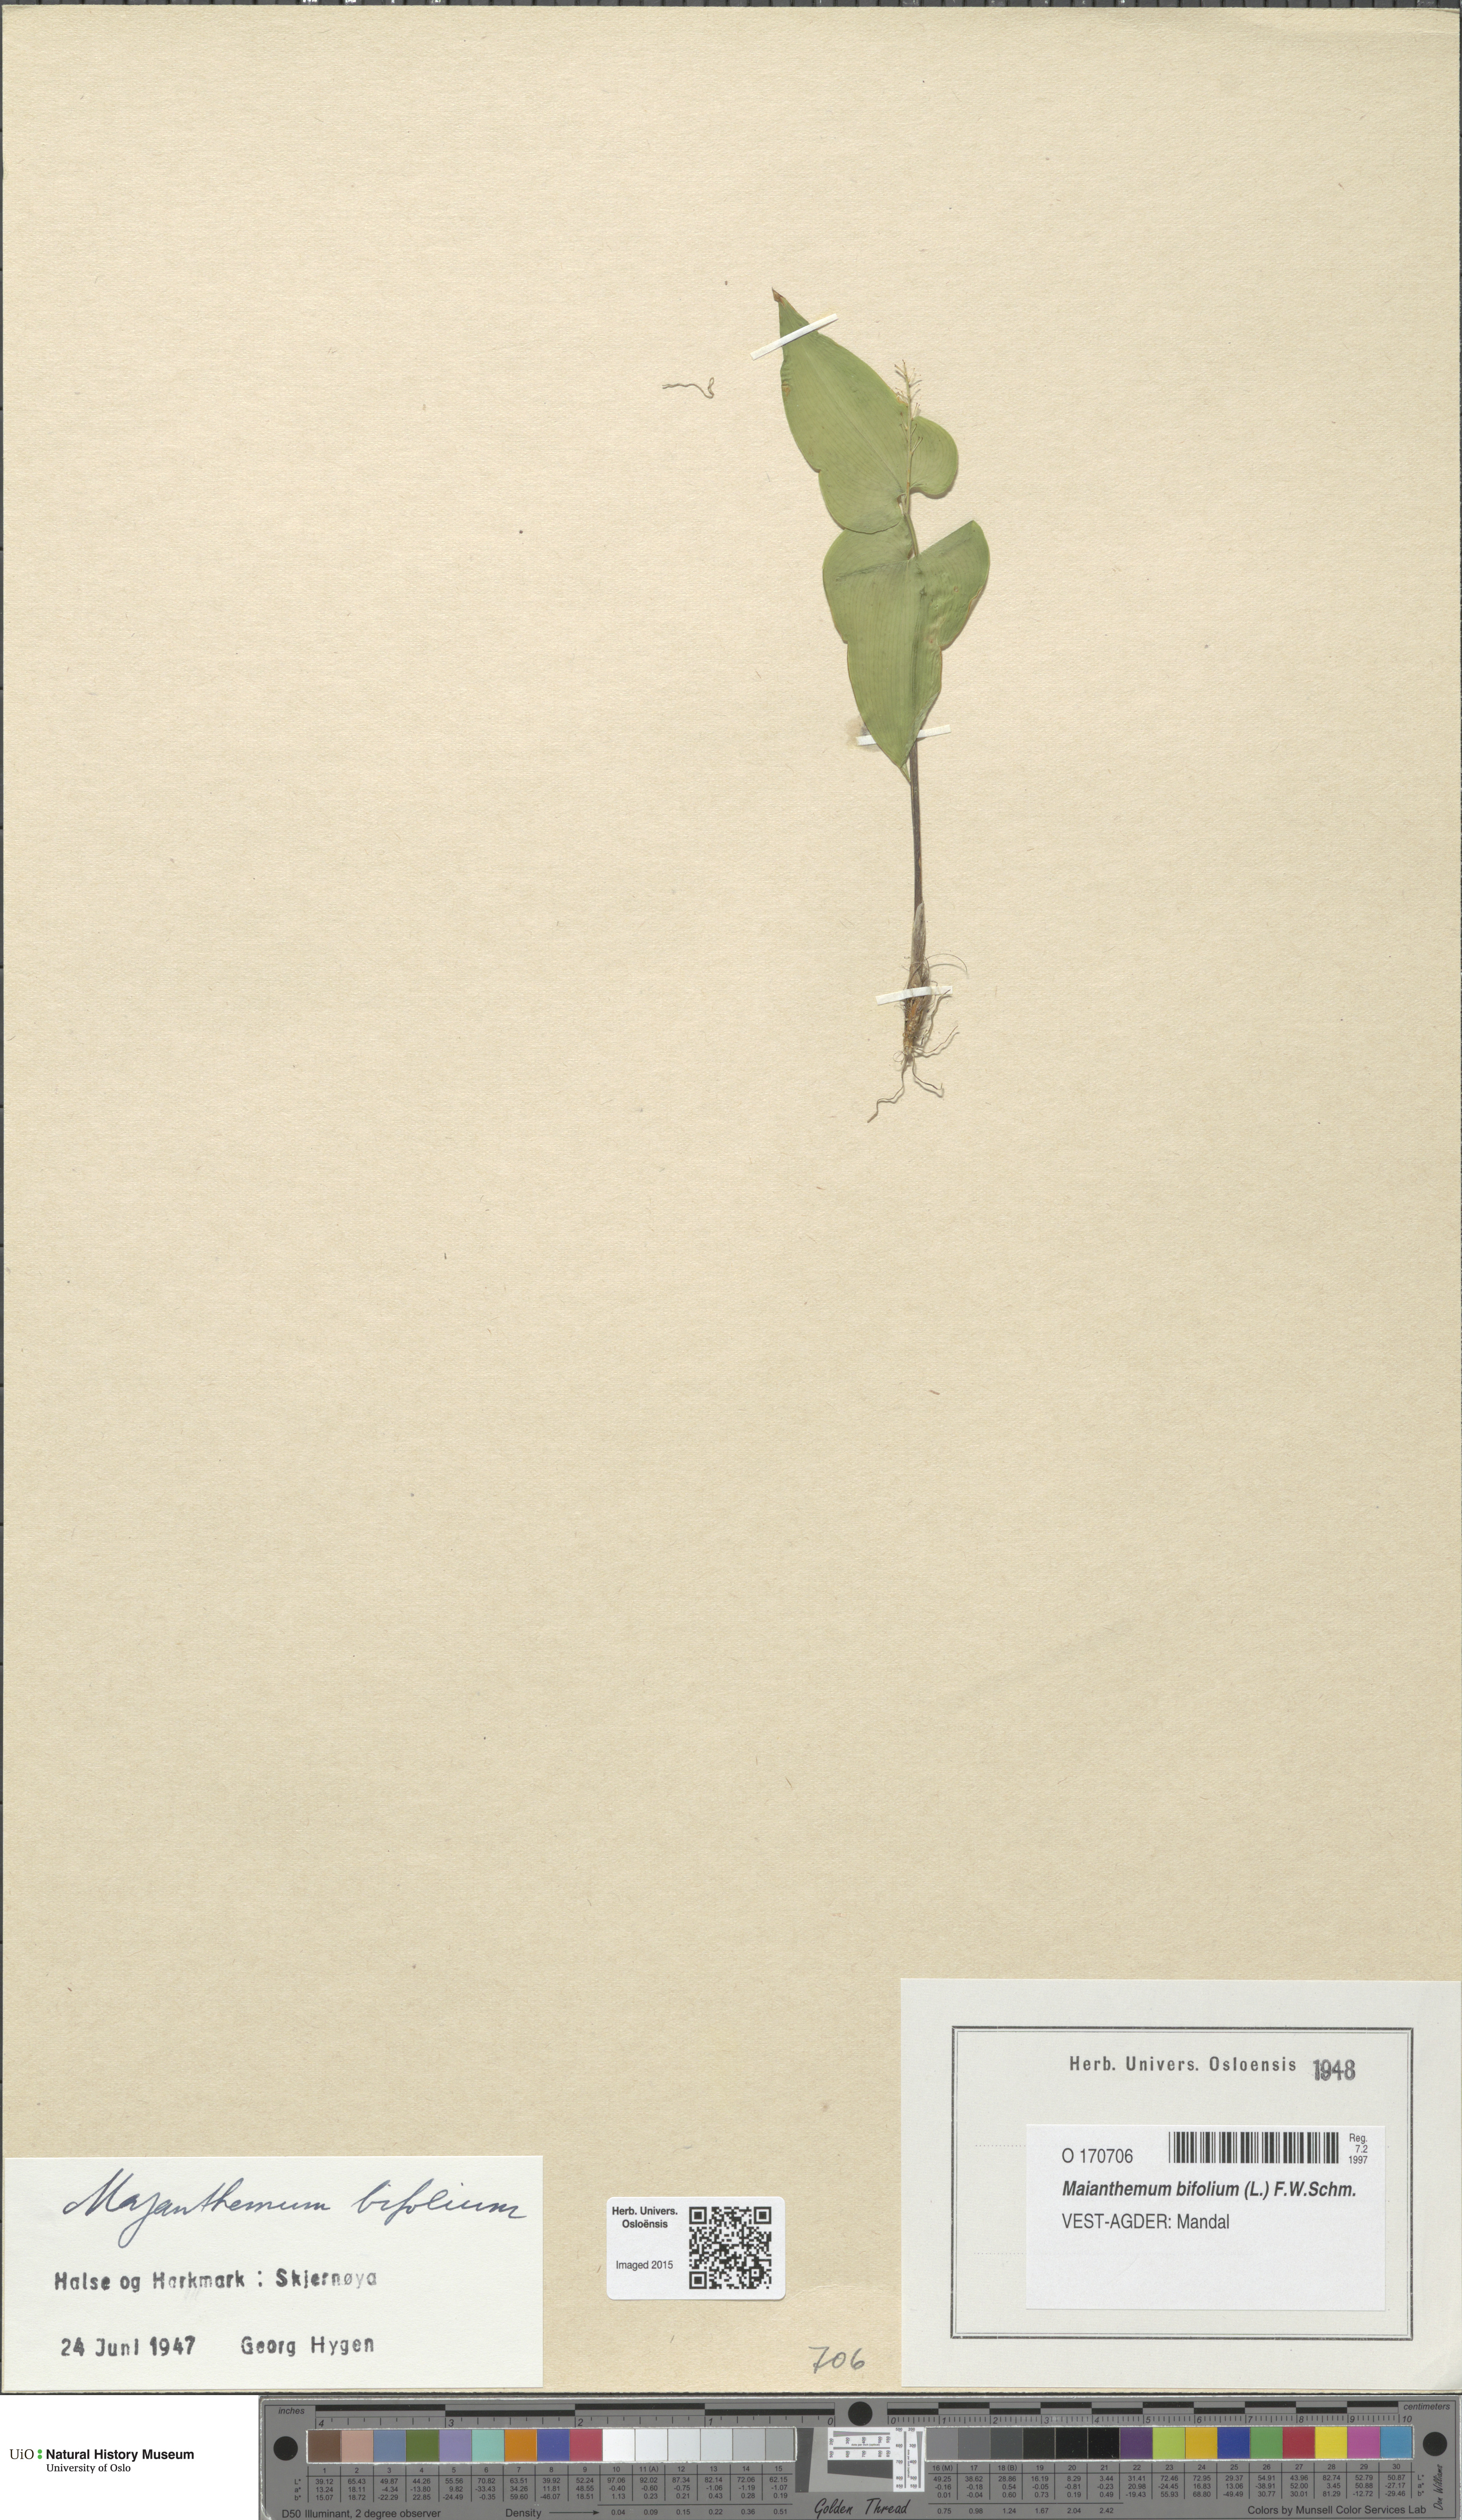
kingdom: Plantae
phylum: Tracheophyta
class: Liliopsida
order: Asparagales
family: Asparagaceae
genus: Maianthemum
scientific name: Maianthemum bifolium
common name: May lily
